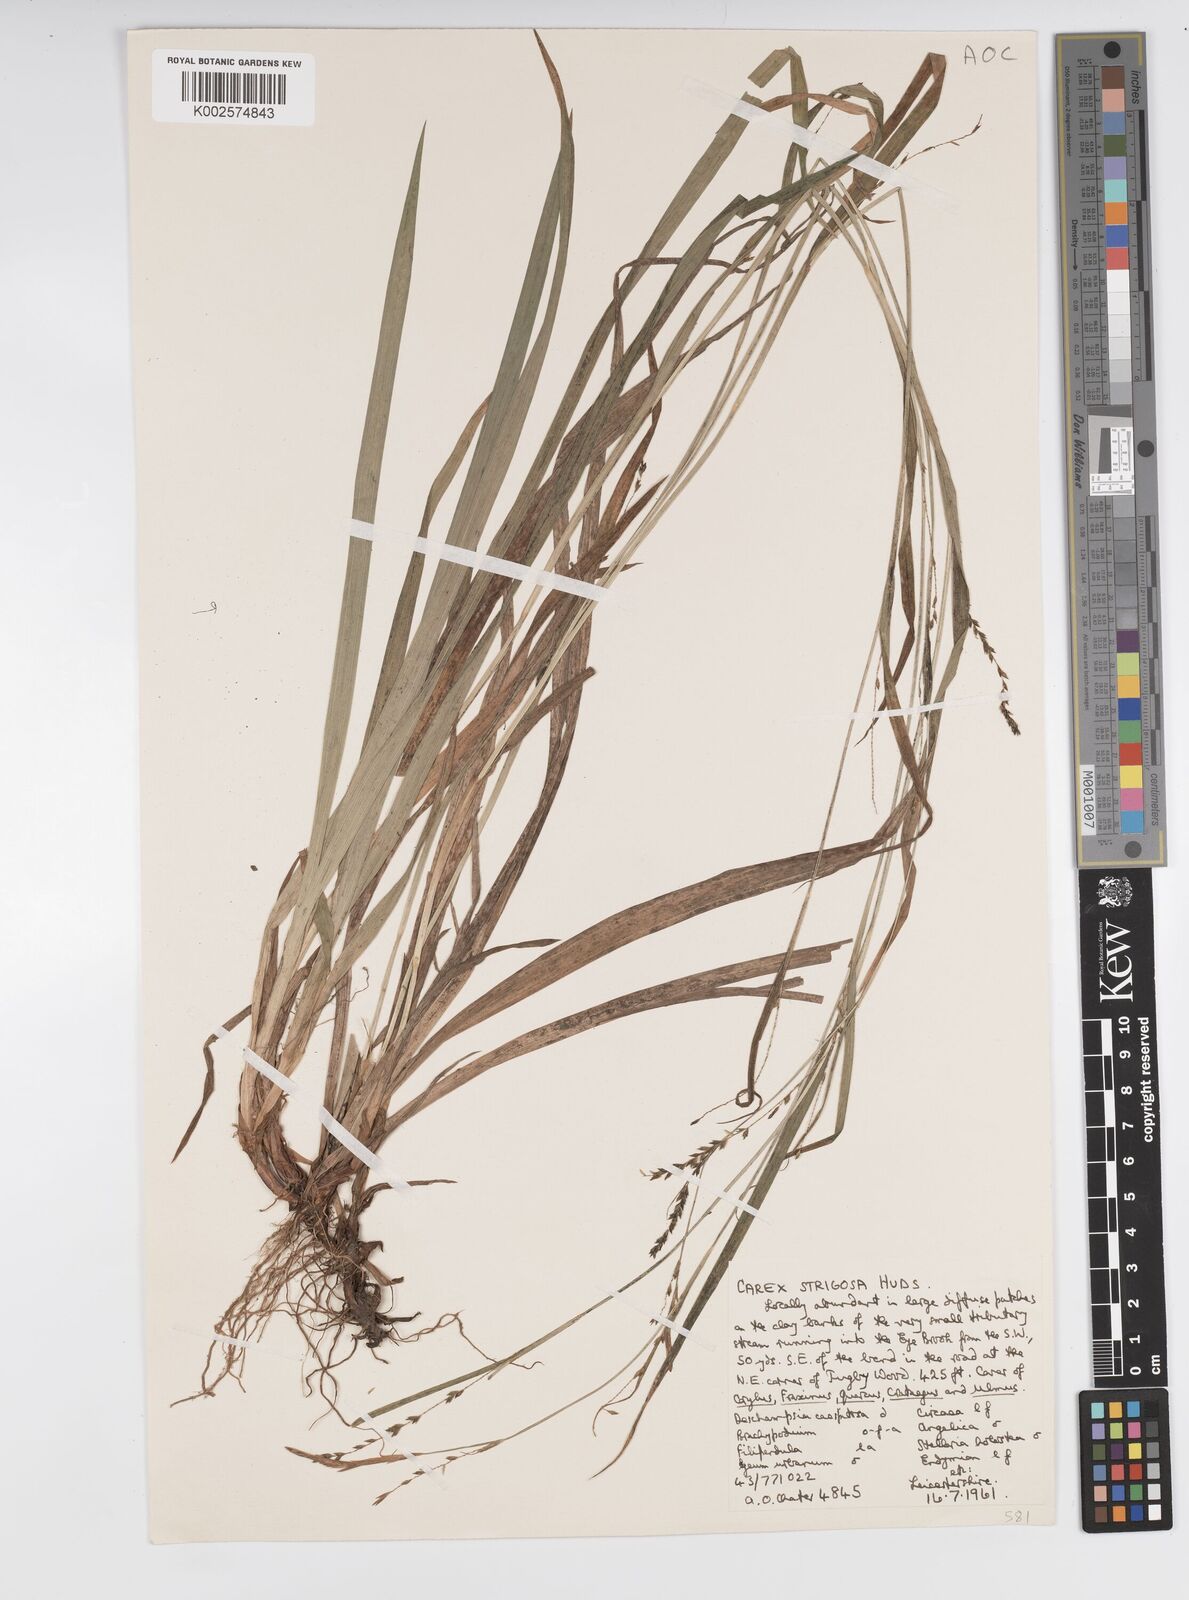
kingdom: Plantae
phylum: Tracheophyta
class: Liliopsida
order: Poales
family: Cyperaceae
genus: Carex
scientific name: Carex strigosa
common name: Thin-spiked wood-sedge
